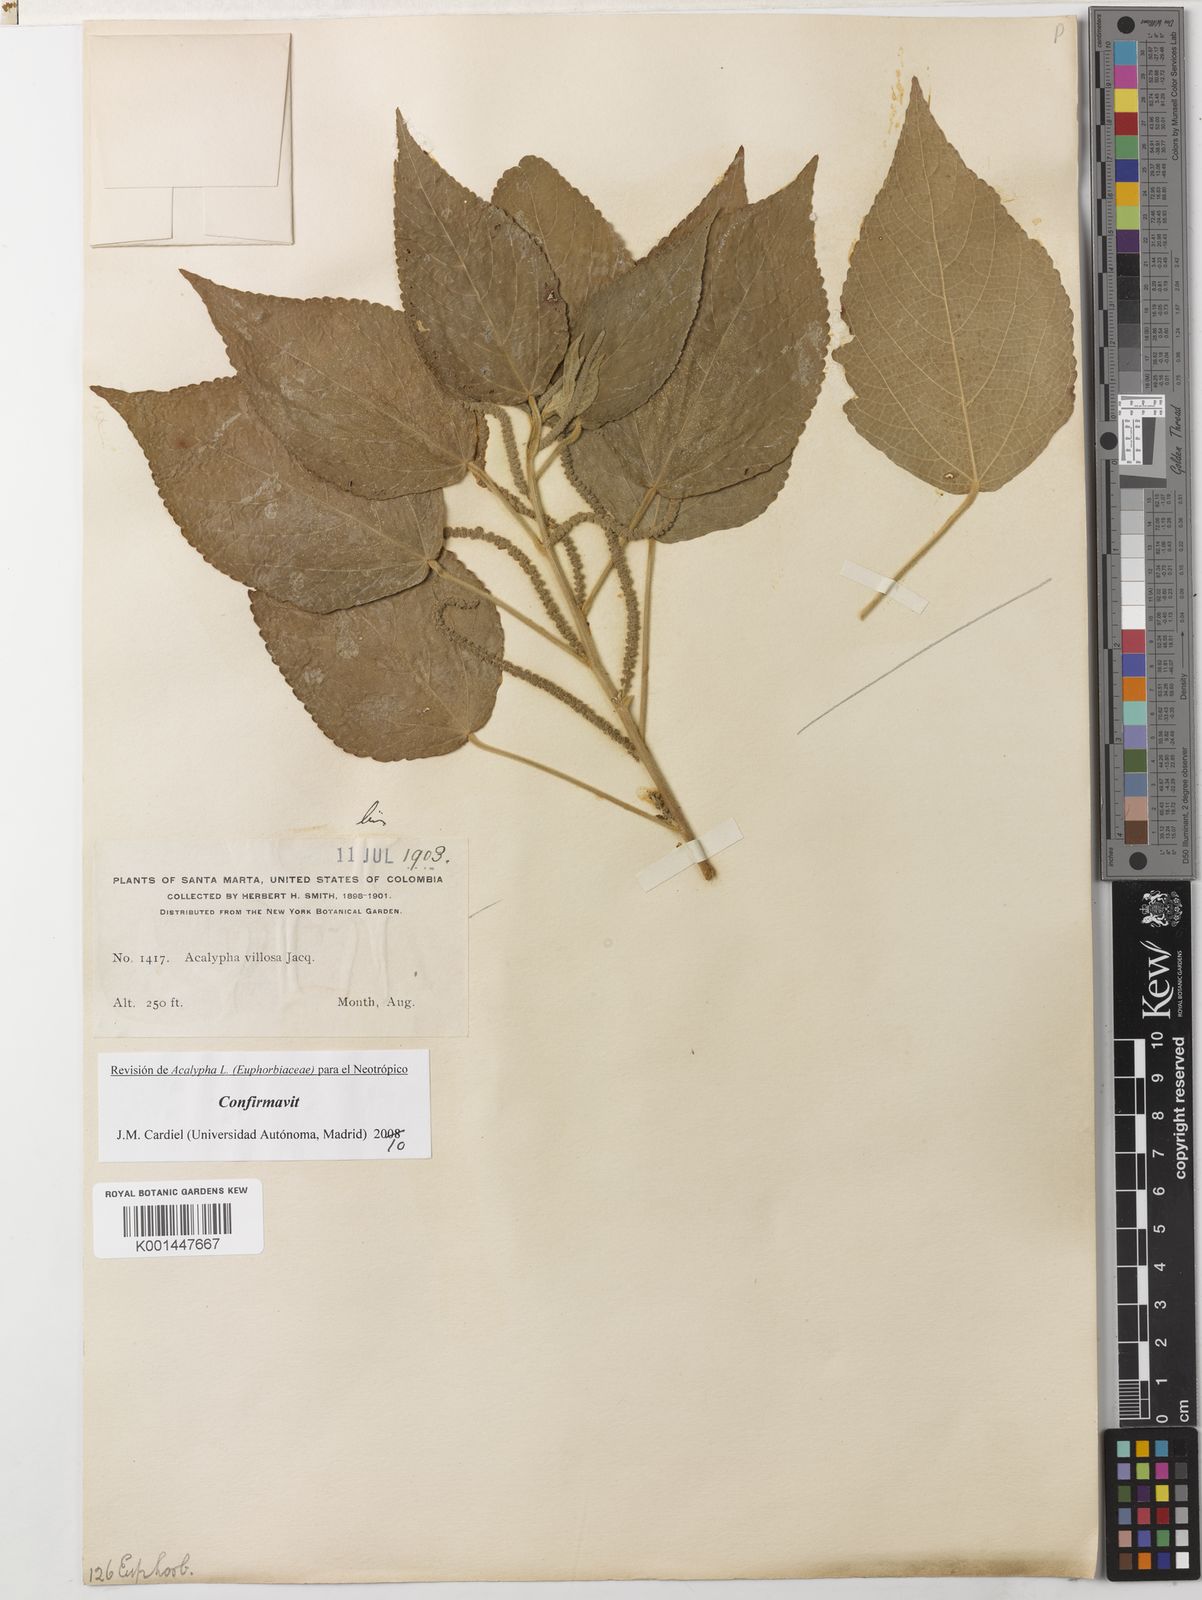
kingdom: Plantae
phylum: Tracheophyta
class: Magnoliopsida
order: Malpighiales
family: Euphorbiaceae
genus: Acalypha
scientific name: Acalypha villosa
